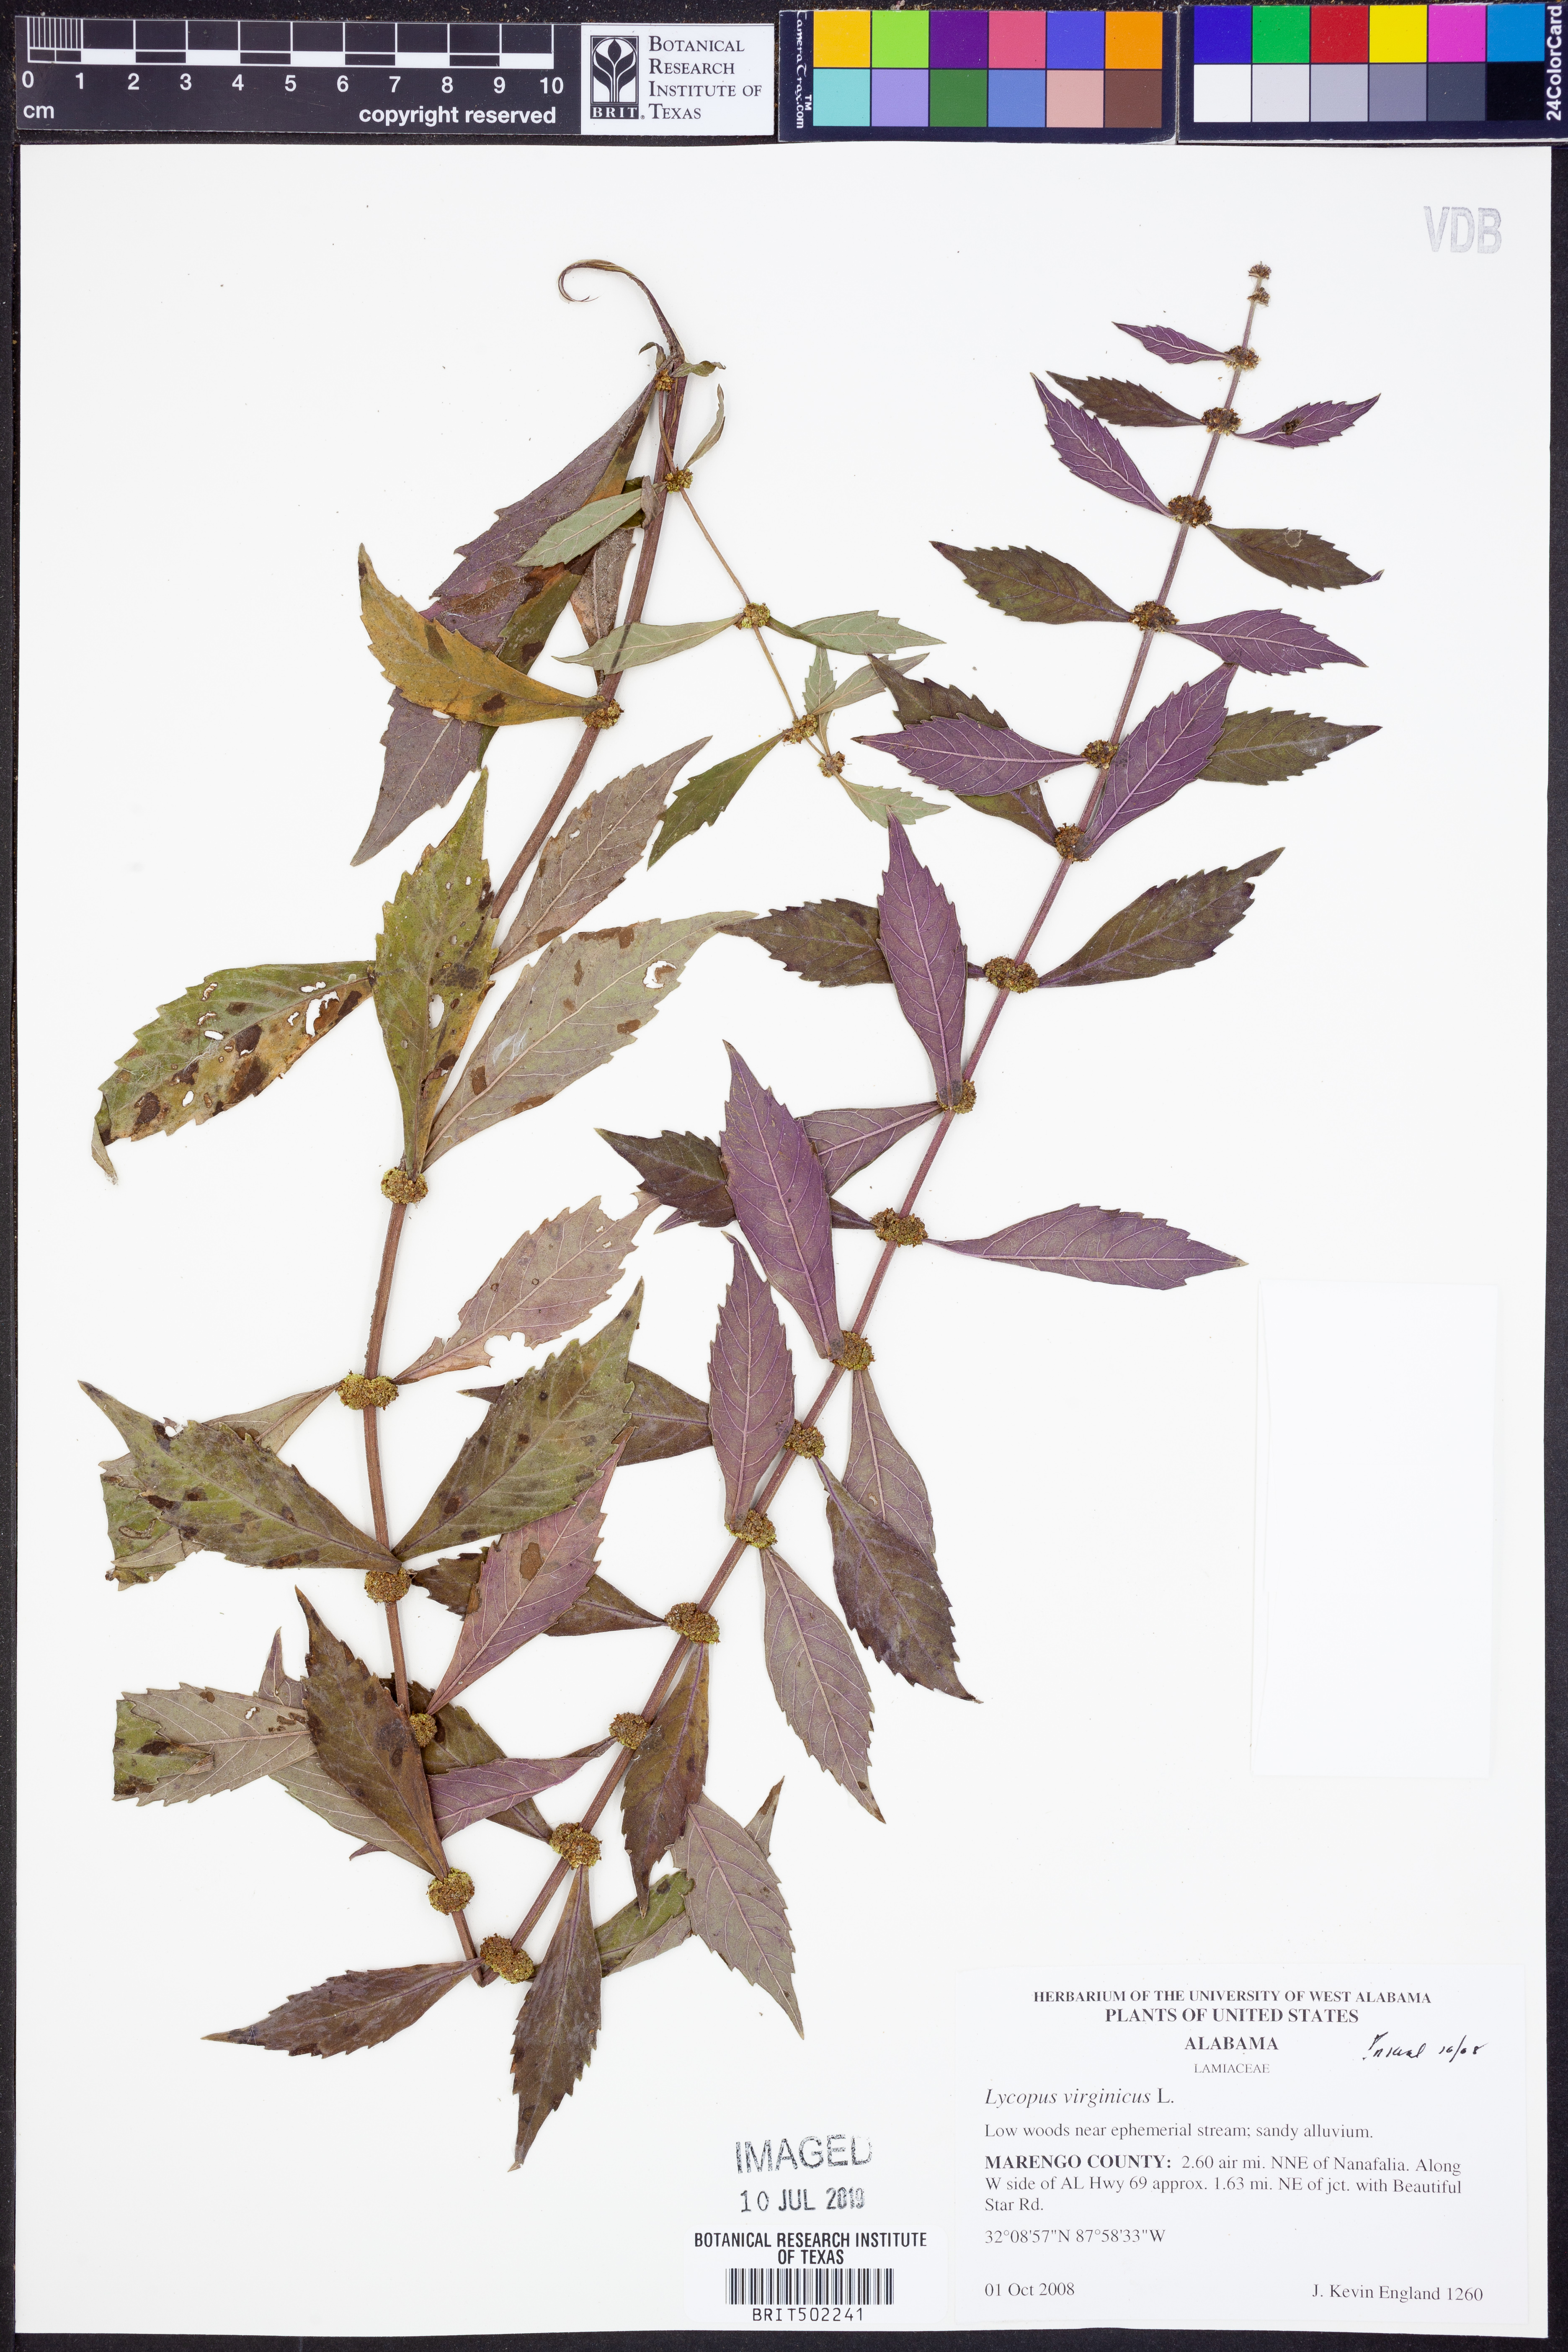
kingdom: Plantae
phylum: Tracheophyta
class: Magnoliopsida
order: Lamiales
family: Lamiaceae
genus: Lycopus
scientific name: Lycopus virginicus
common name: Bugleweed
